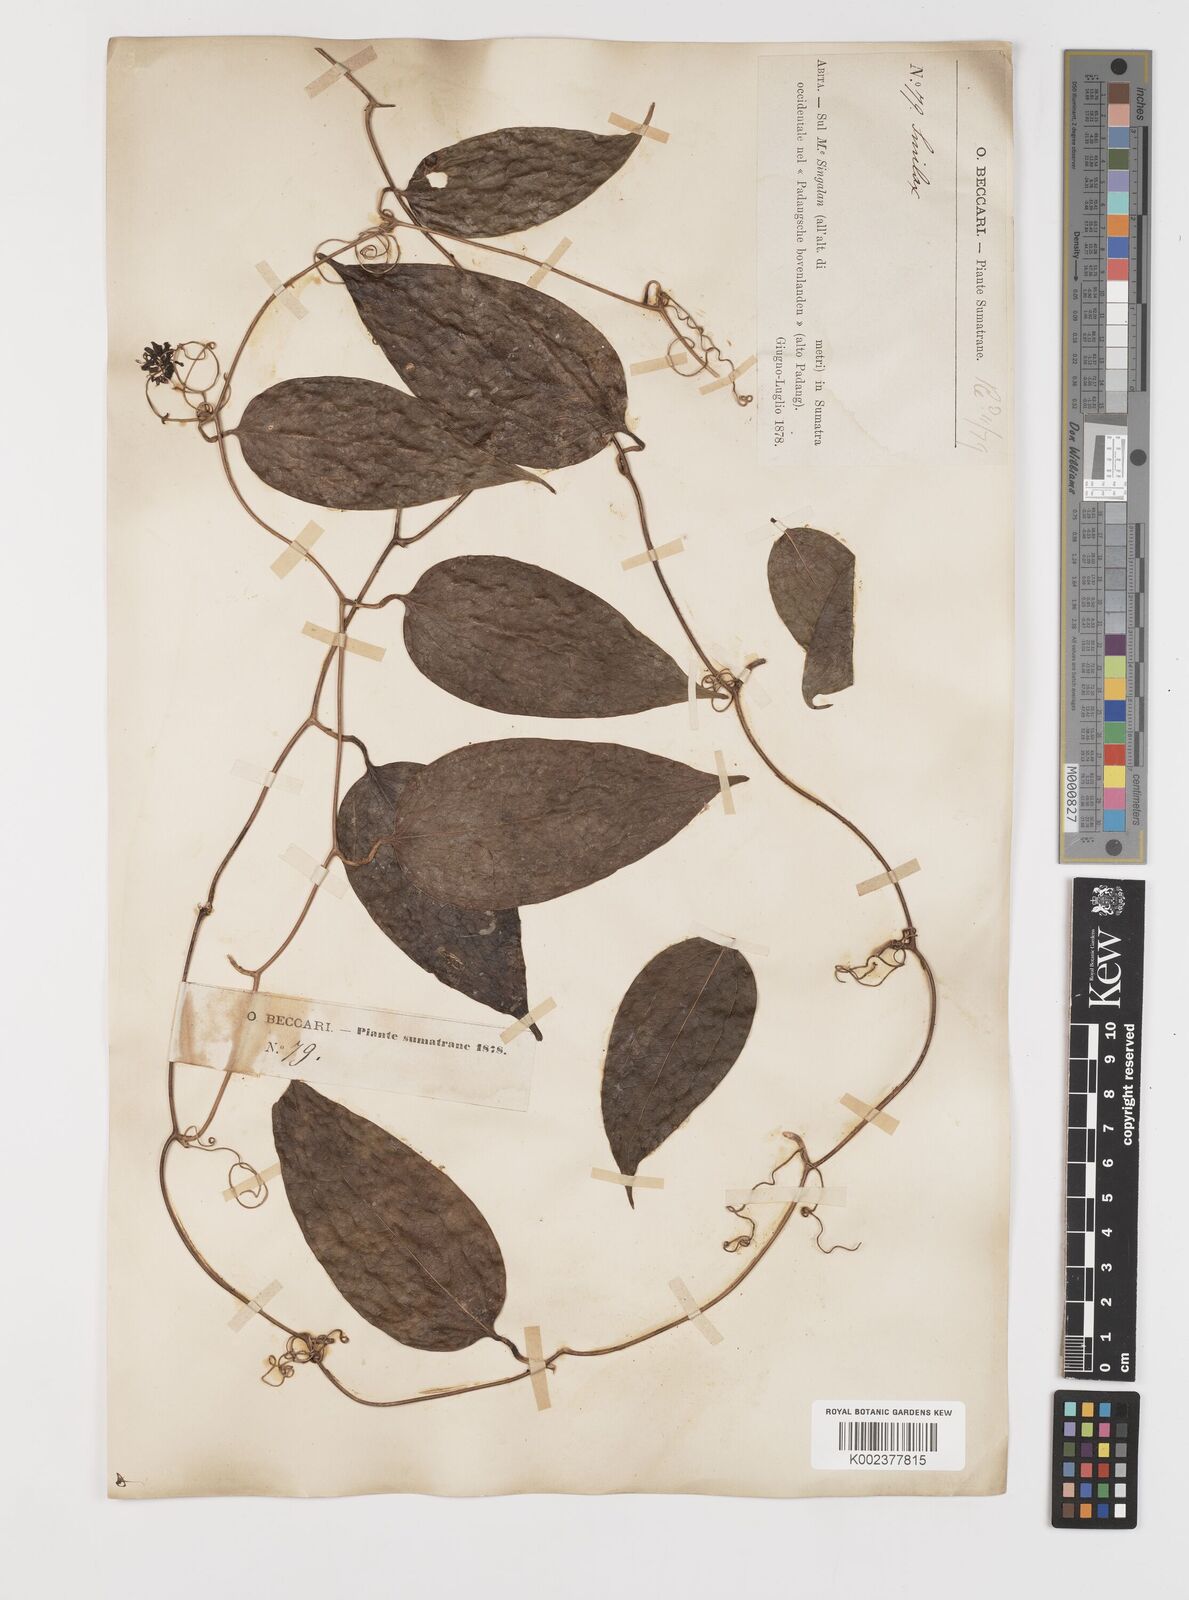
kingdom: Plantae
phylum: Tracheophyta
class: Liliopsida
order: Liliales
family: Smilacaceae
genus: Smilax
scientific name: Smilax
